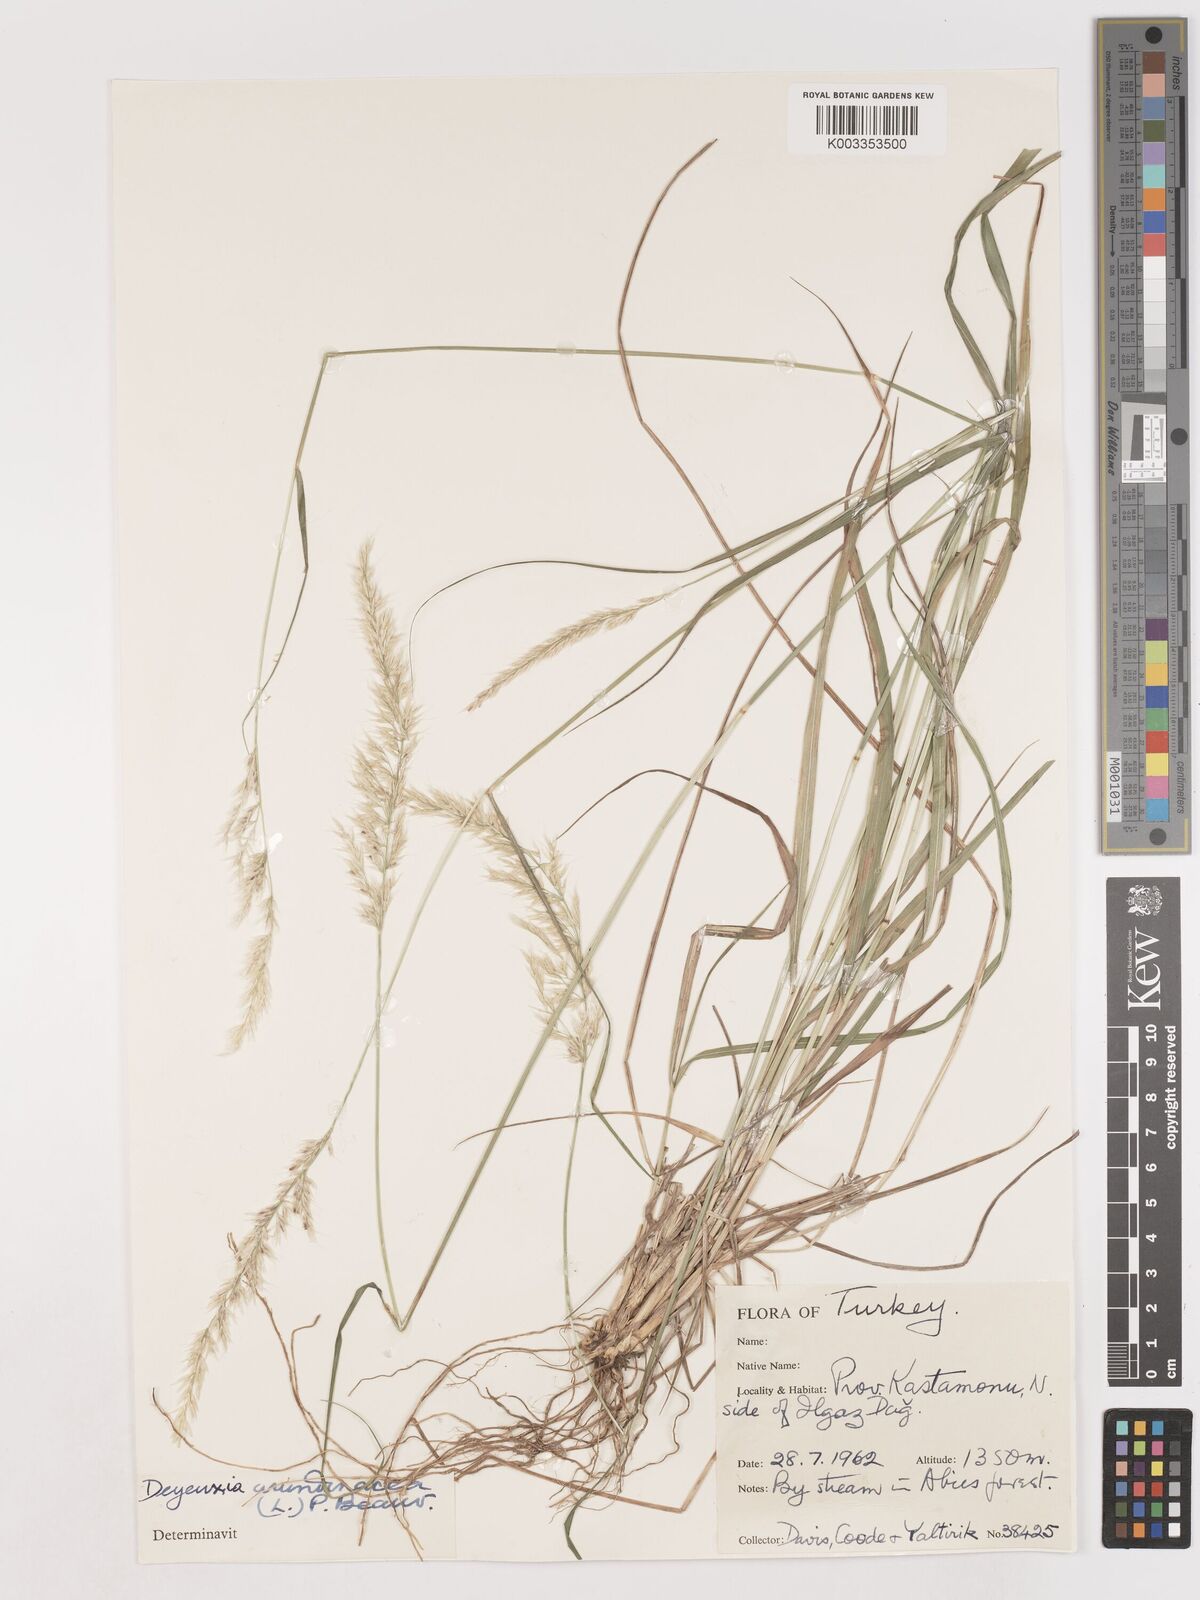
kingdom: Plantae
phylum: Tracheophyta
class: Liliopsida
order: Poales
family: Poaceae
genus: Calamagrostis
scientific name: Calamagrostis
